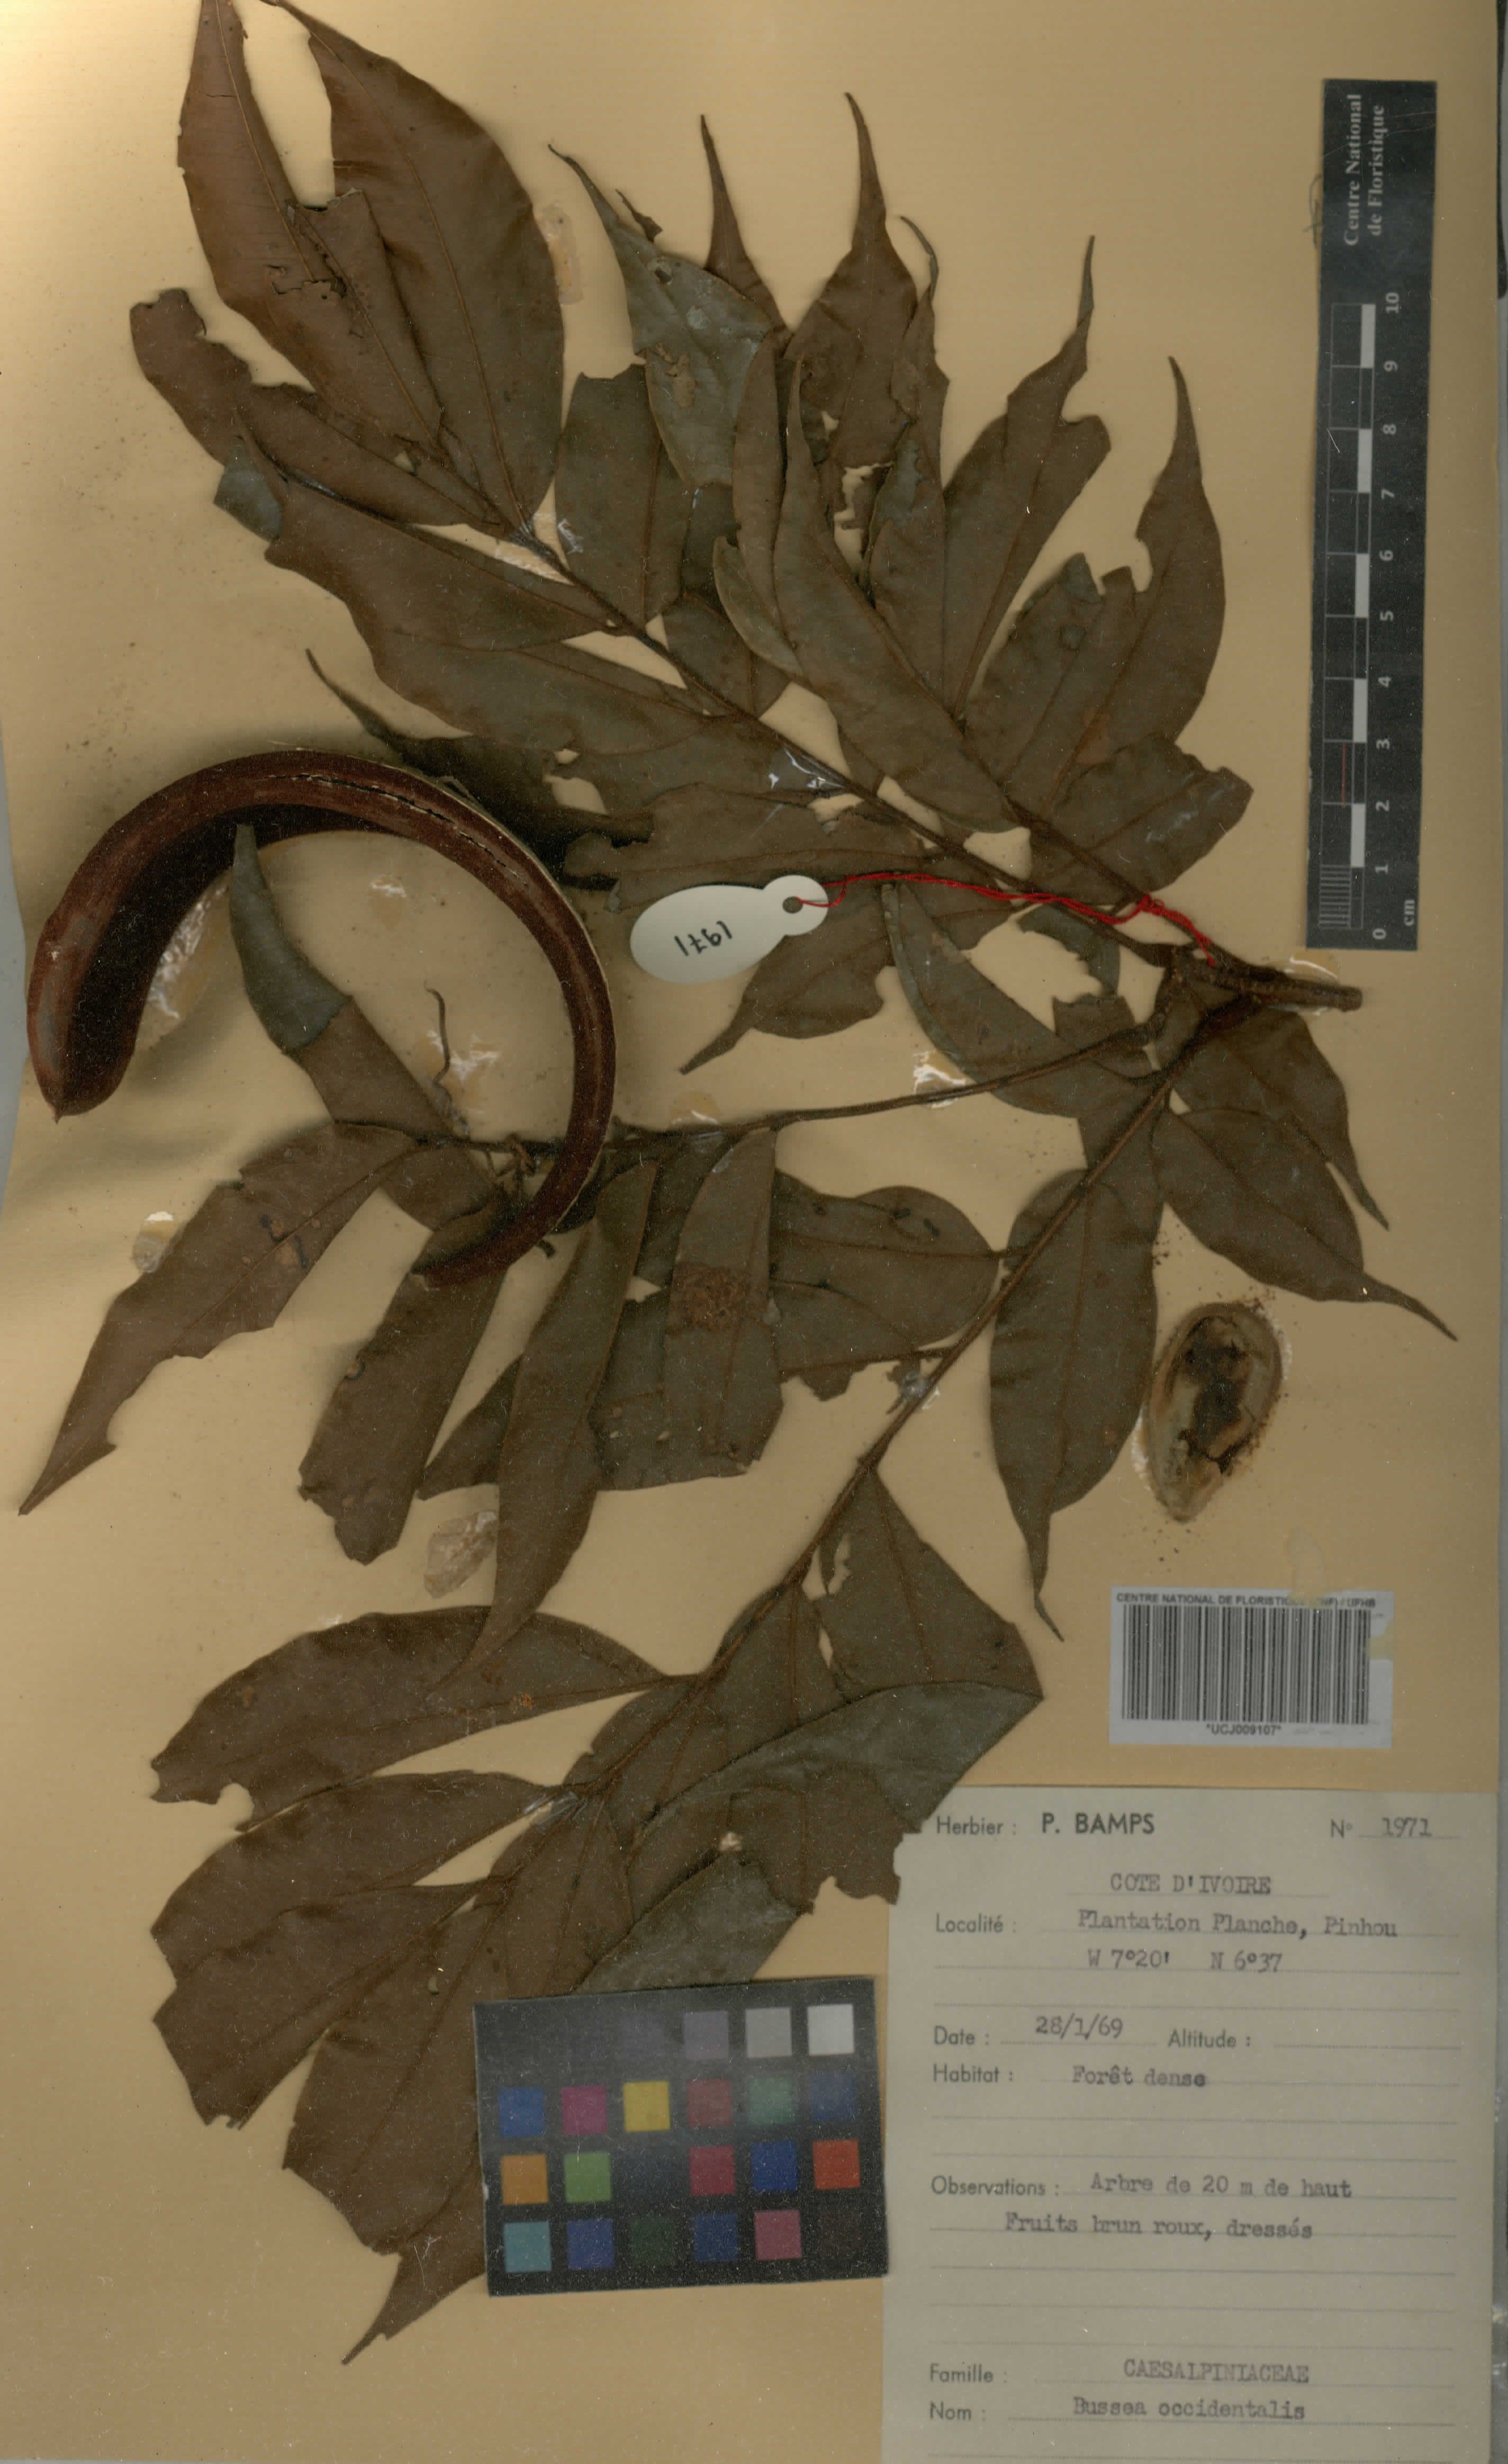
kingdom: Plantae
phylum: Tracheophyta
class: Magnoliopsida
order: Fabales
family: Fabaceae
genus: Bussea
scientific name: Bussea
